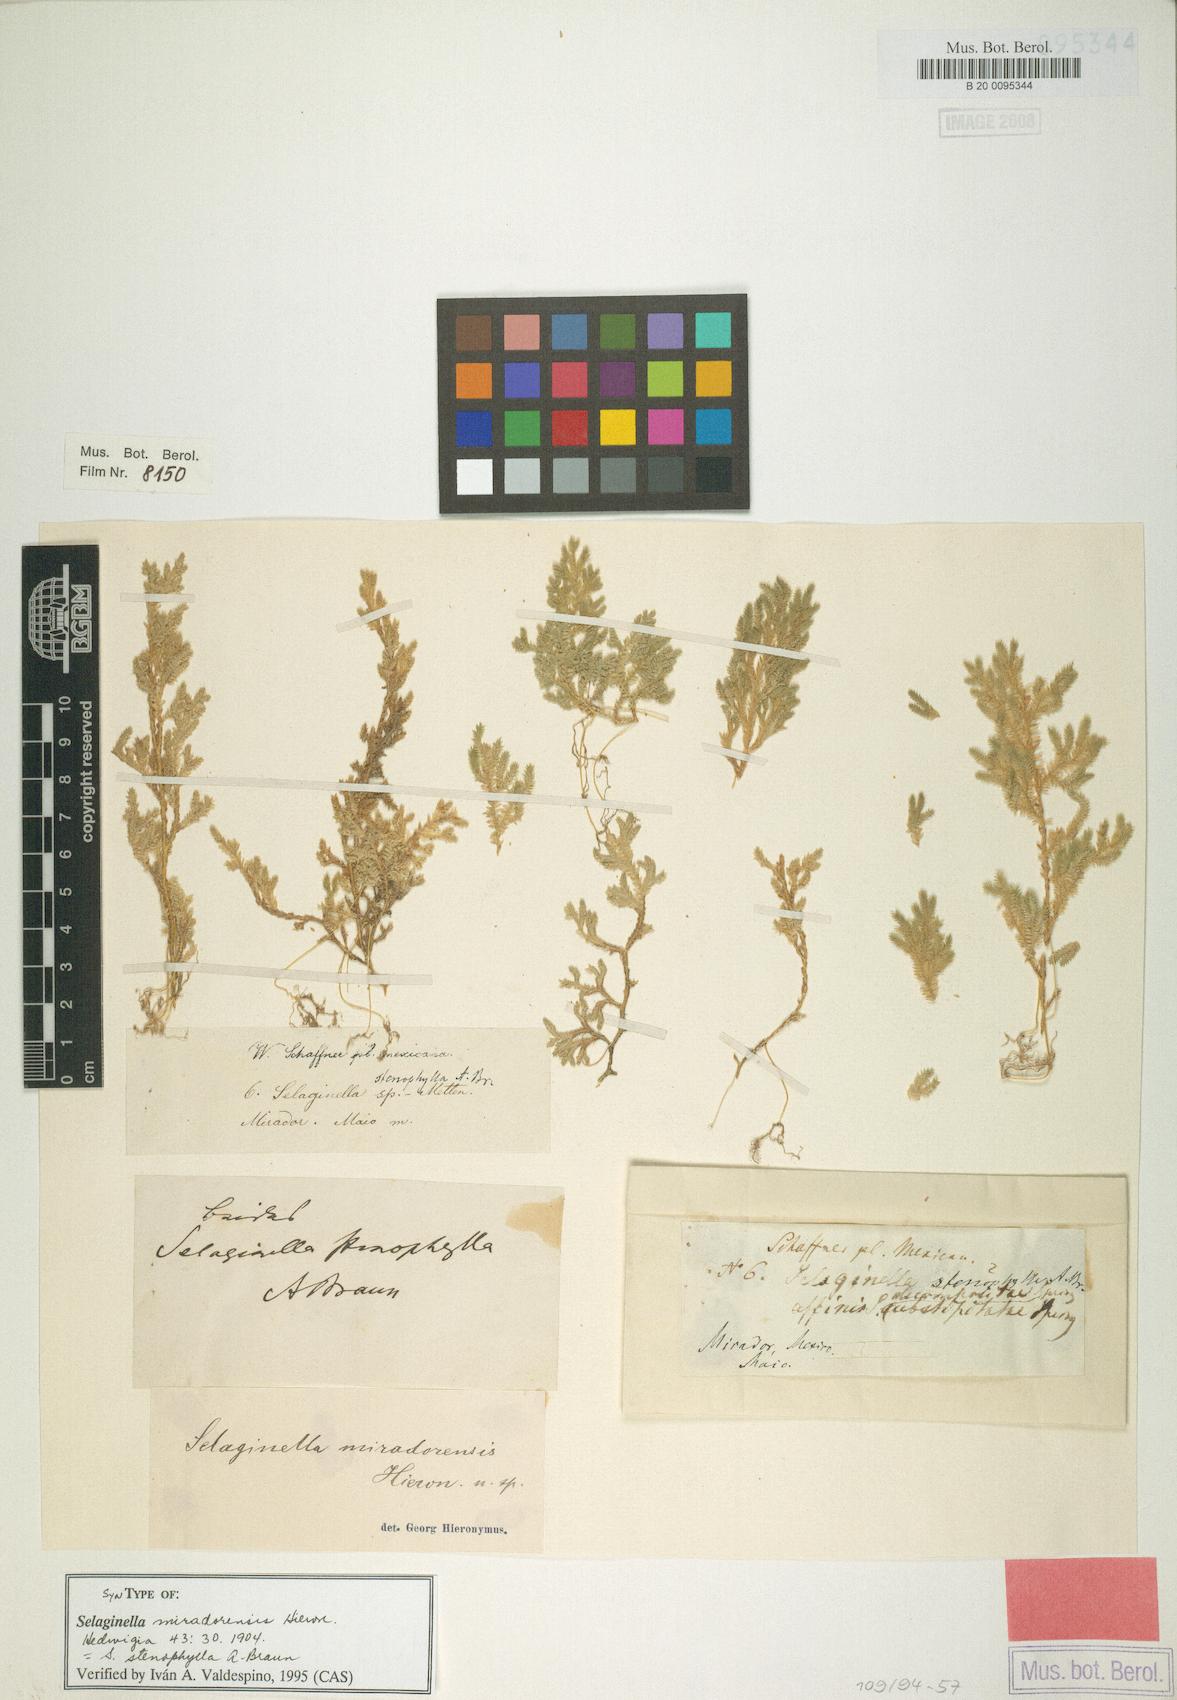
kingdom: Plantae
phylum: Tracheophyta
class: Lycopodiopsida
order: Selaginellales
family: Selaginellaceae
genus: Selaginella
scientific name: Selaginella stenophylla
